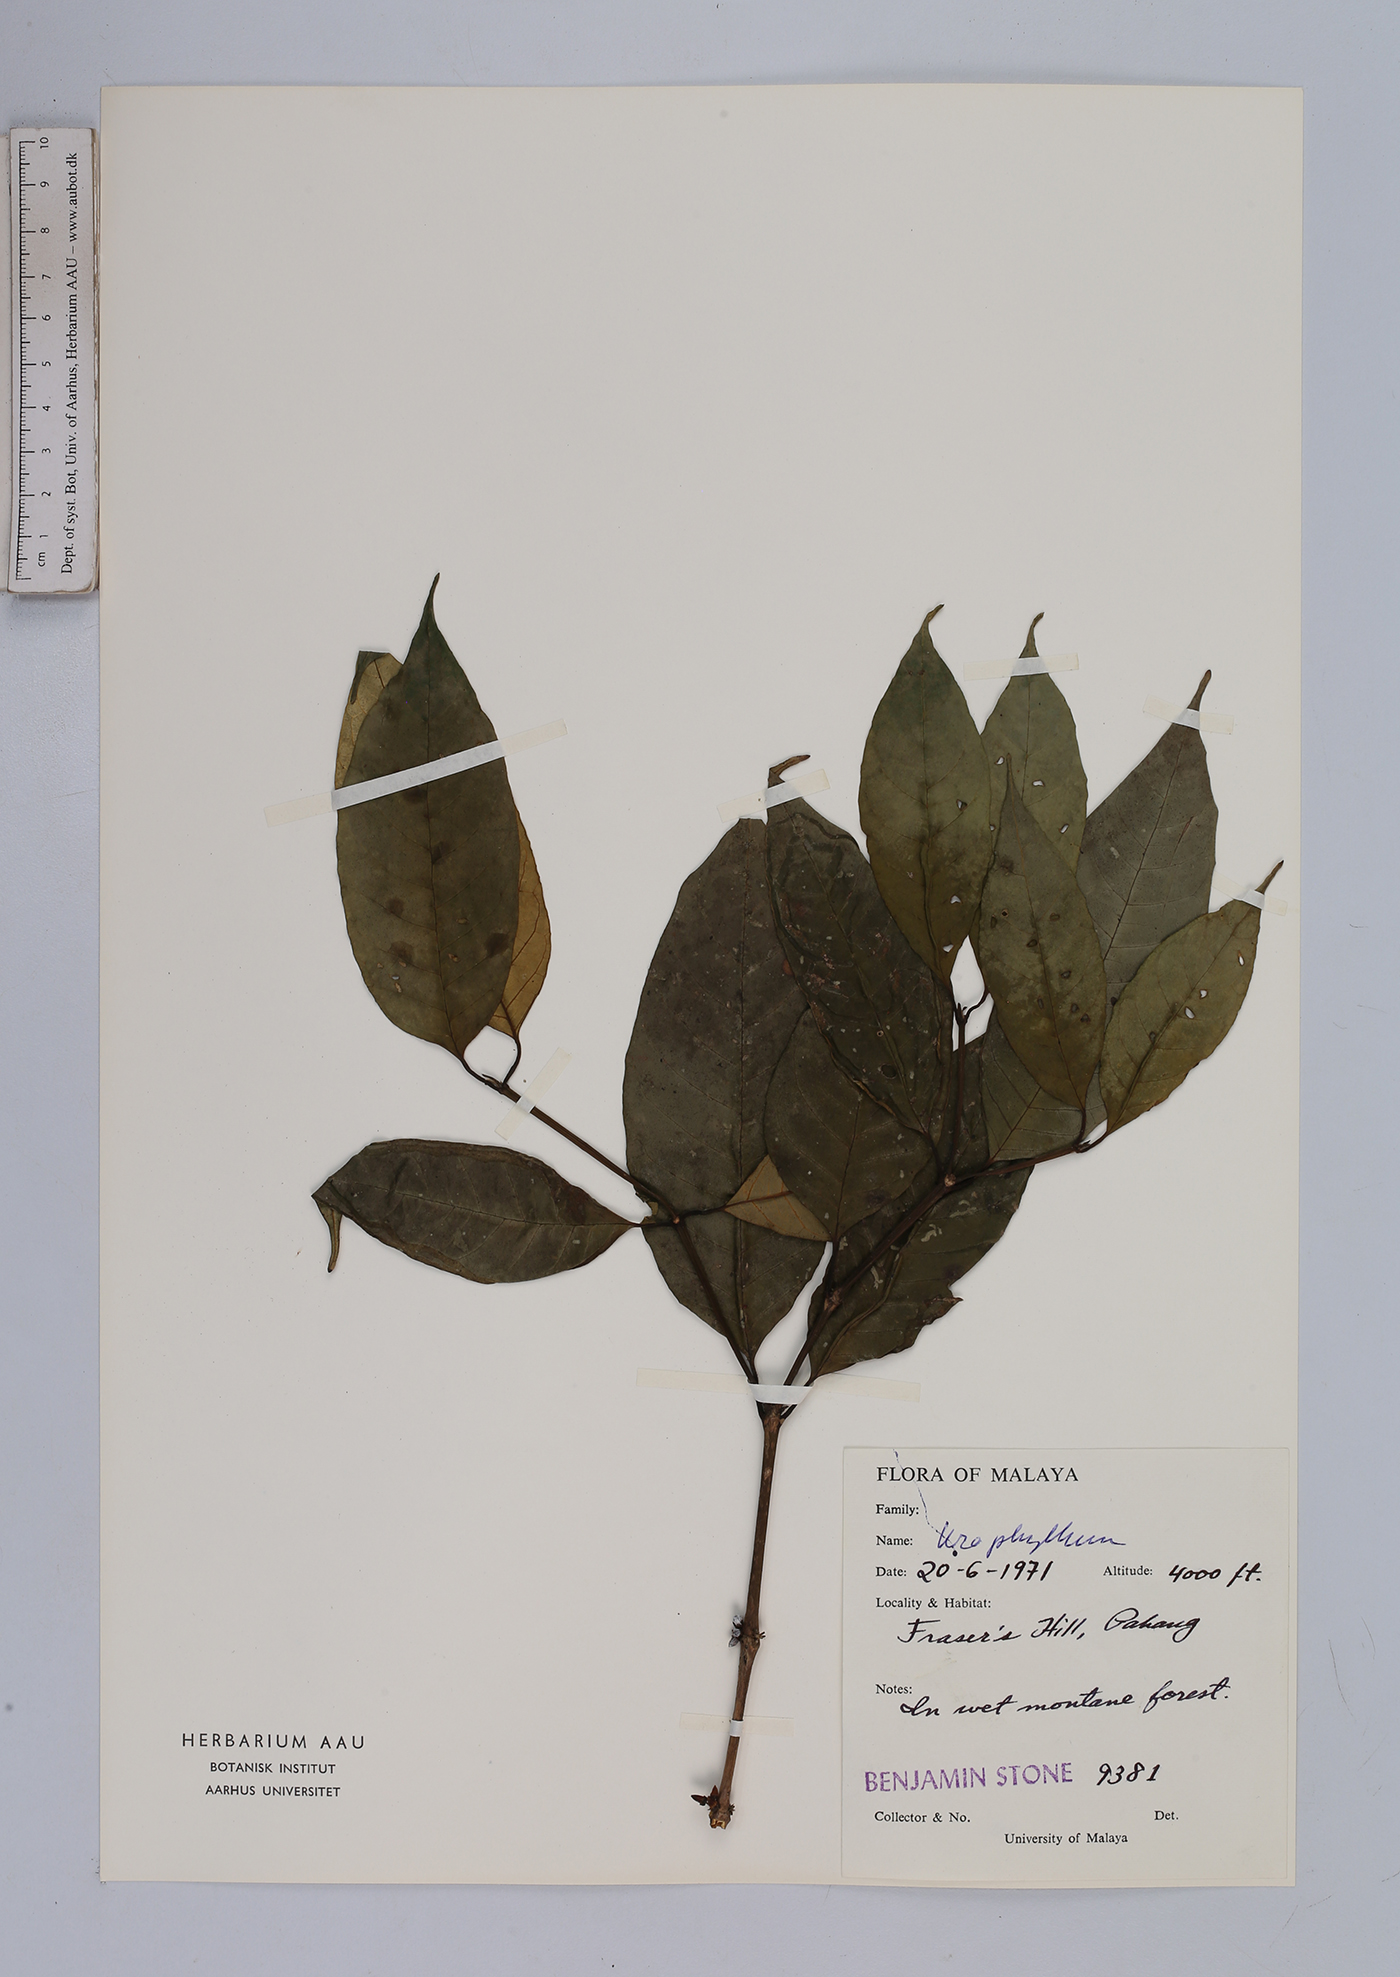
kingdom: Plantae
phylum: Tracheophyta
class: Magnoliopsida
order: Gentianales
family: Rubiaceae
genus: Urophyllum
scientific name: Urophyllum
